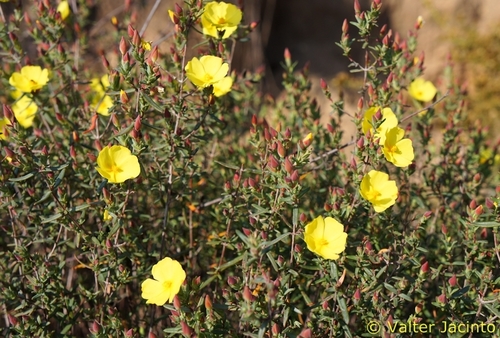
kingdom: Plantae
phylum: Tracheophyta
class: Magnoliopsida
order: Malvales
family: Cistaceae
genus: Halimium
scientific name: Halimium calycinum
